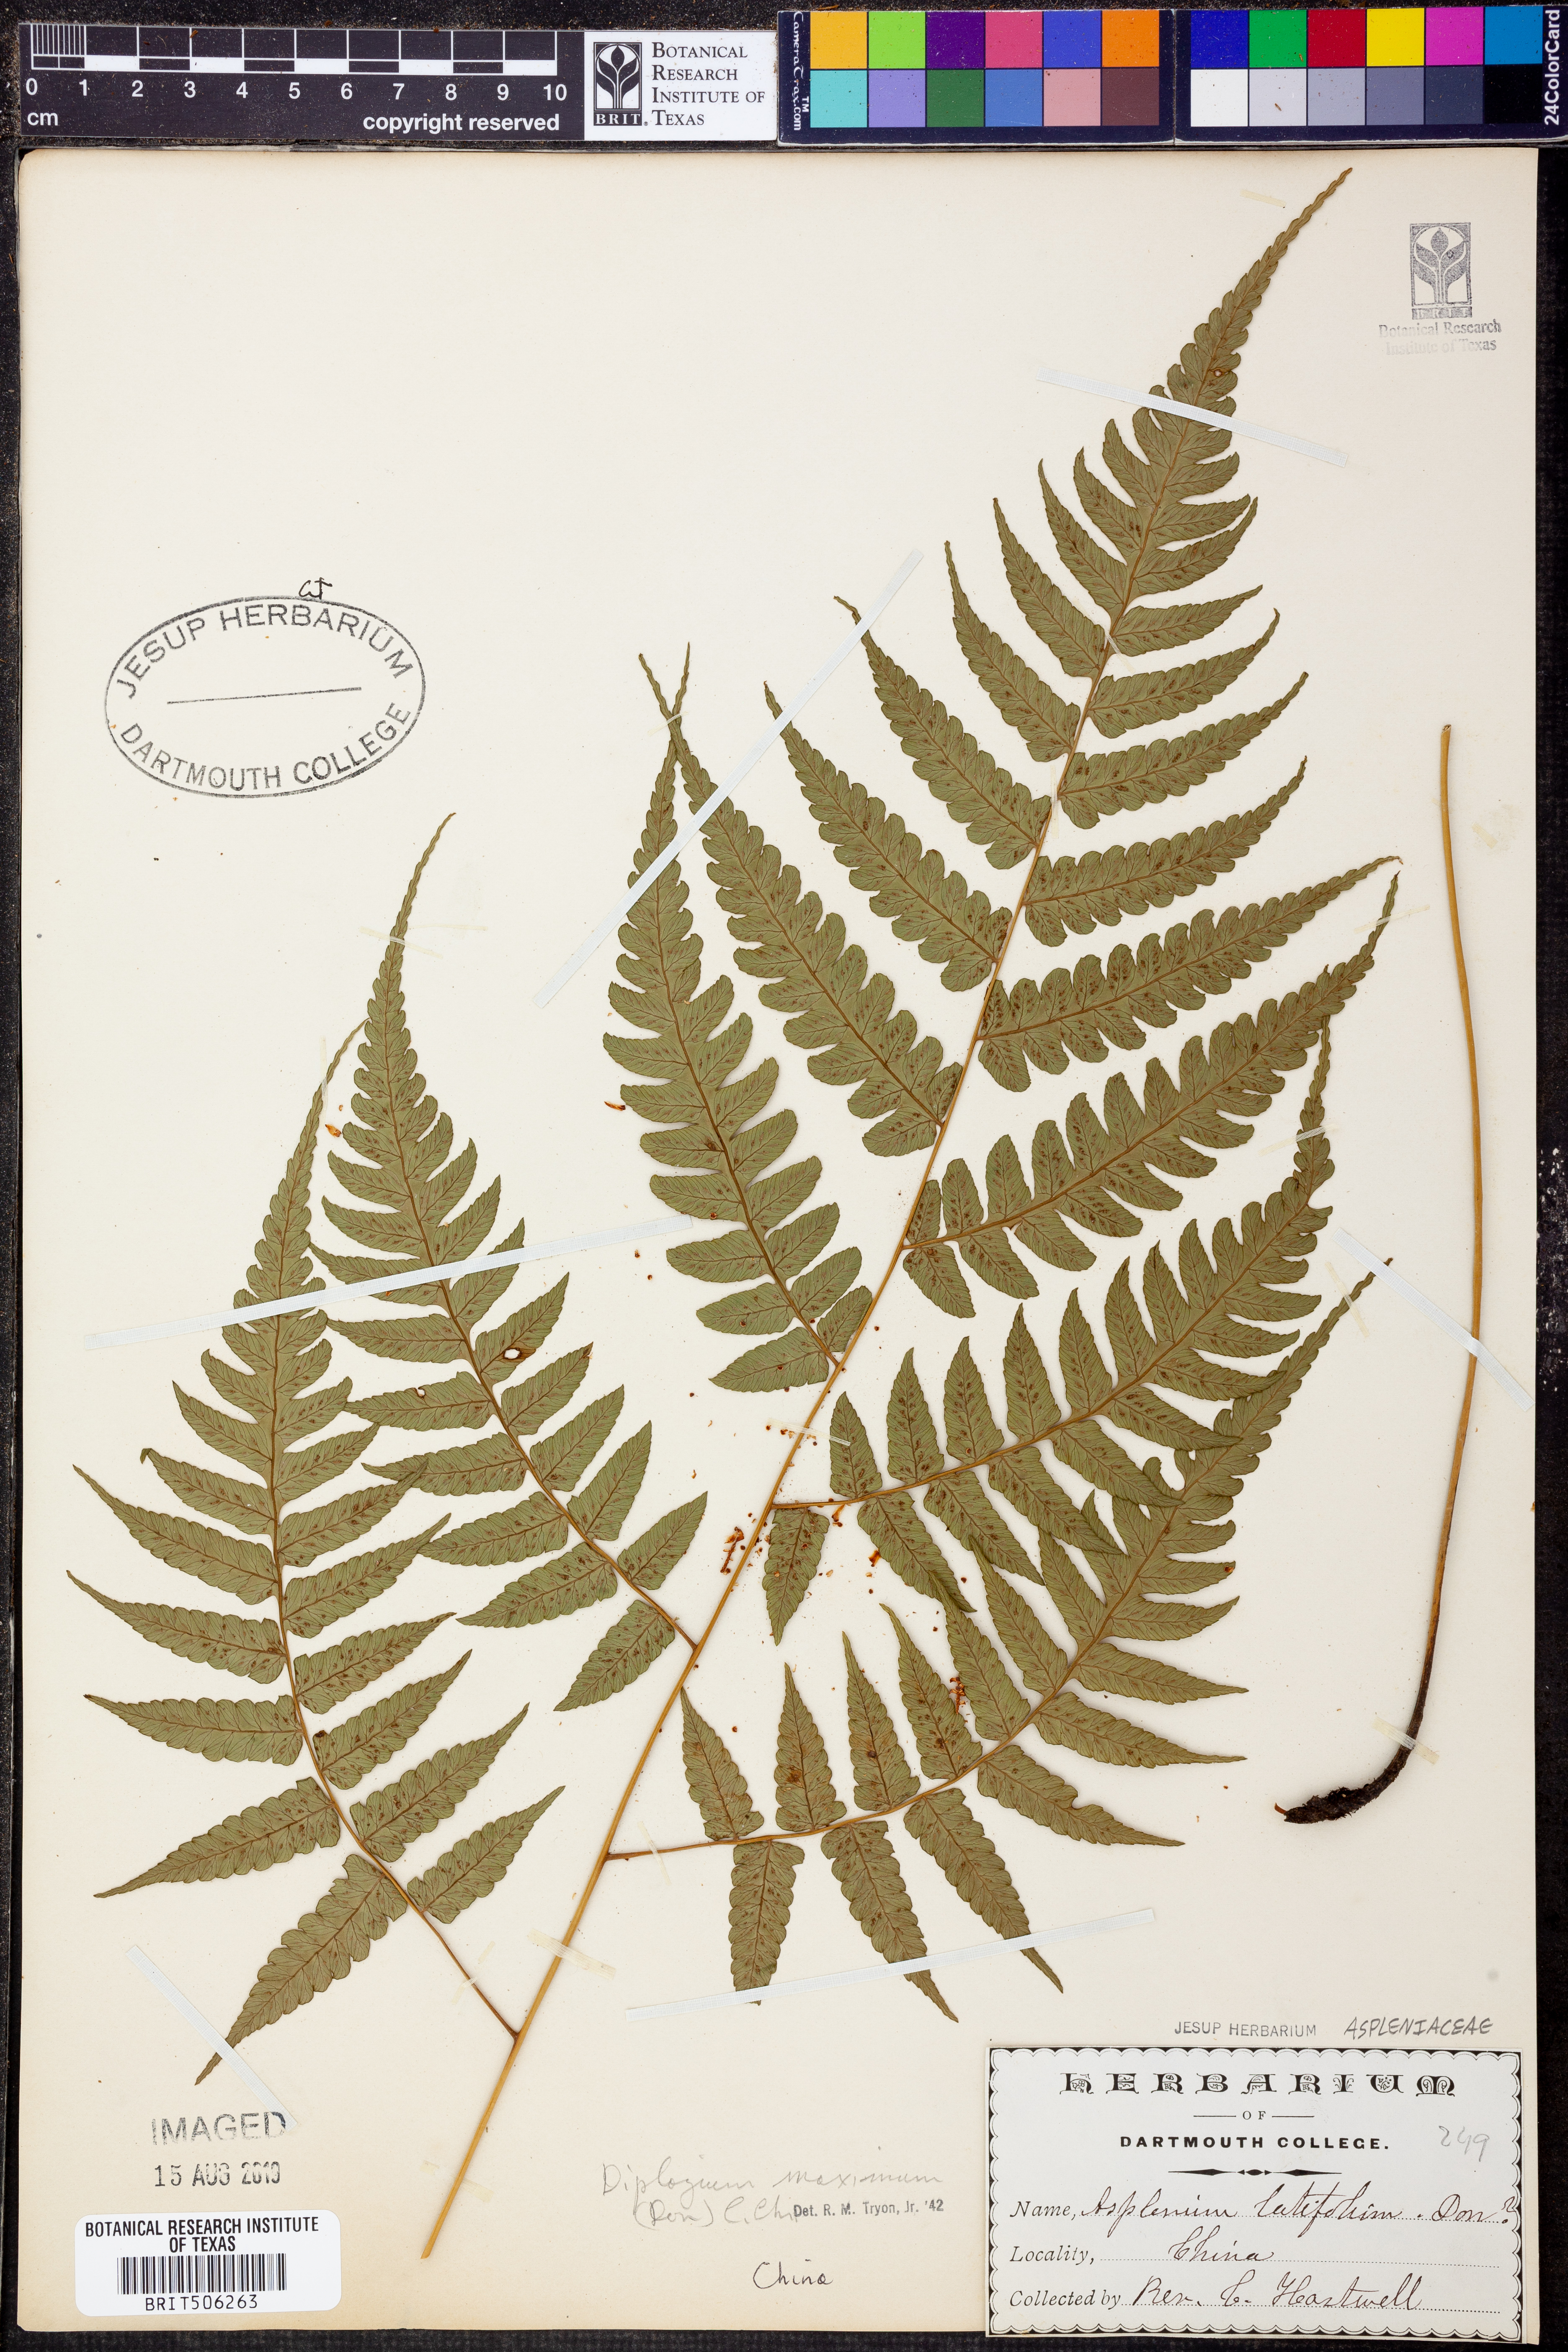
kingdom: Plantae
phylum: Tracheophyta
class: Polypodiopsida
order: Polypodiales
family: Athyriaceae
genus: Diplazium
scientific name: Diplazium maximum
